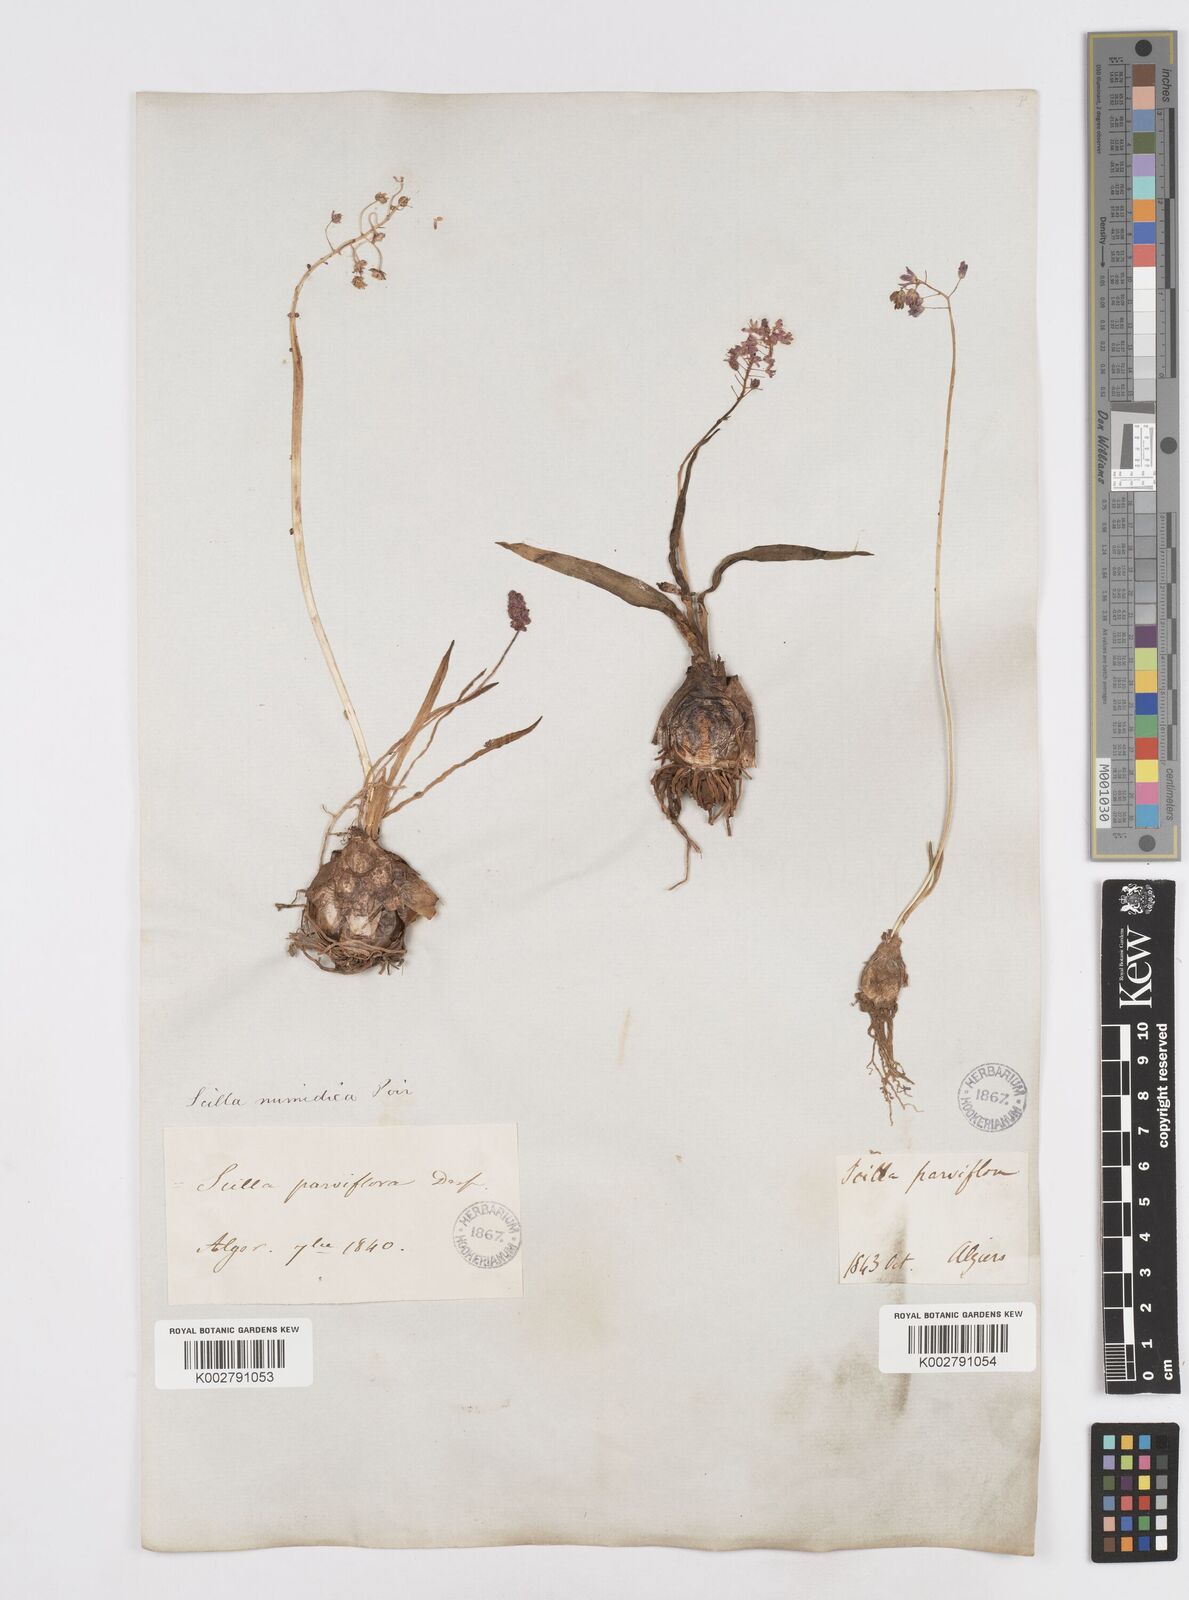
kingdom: Plantae
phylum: Tracheophyta
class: Liliopsida
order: Asparagales
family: Asparagaceae
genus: Barnardia
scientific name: Barnardia numidica
